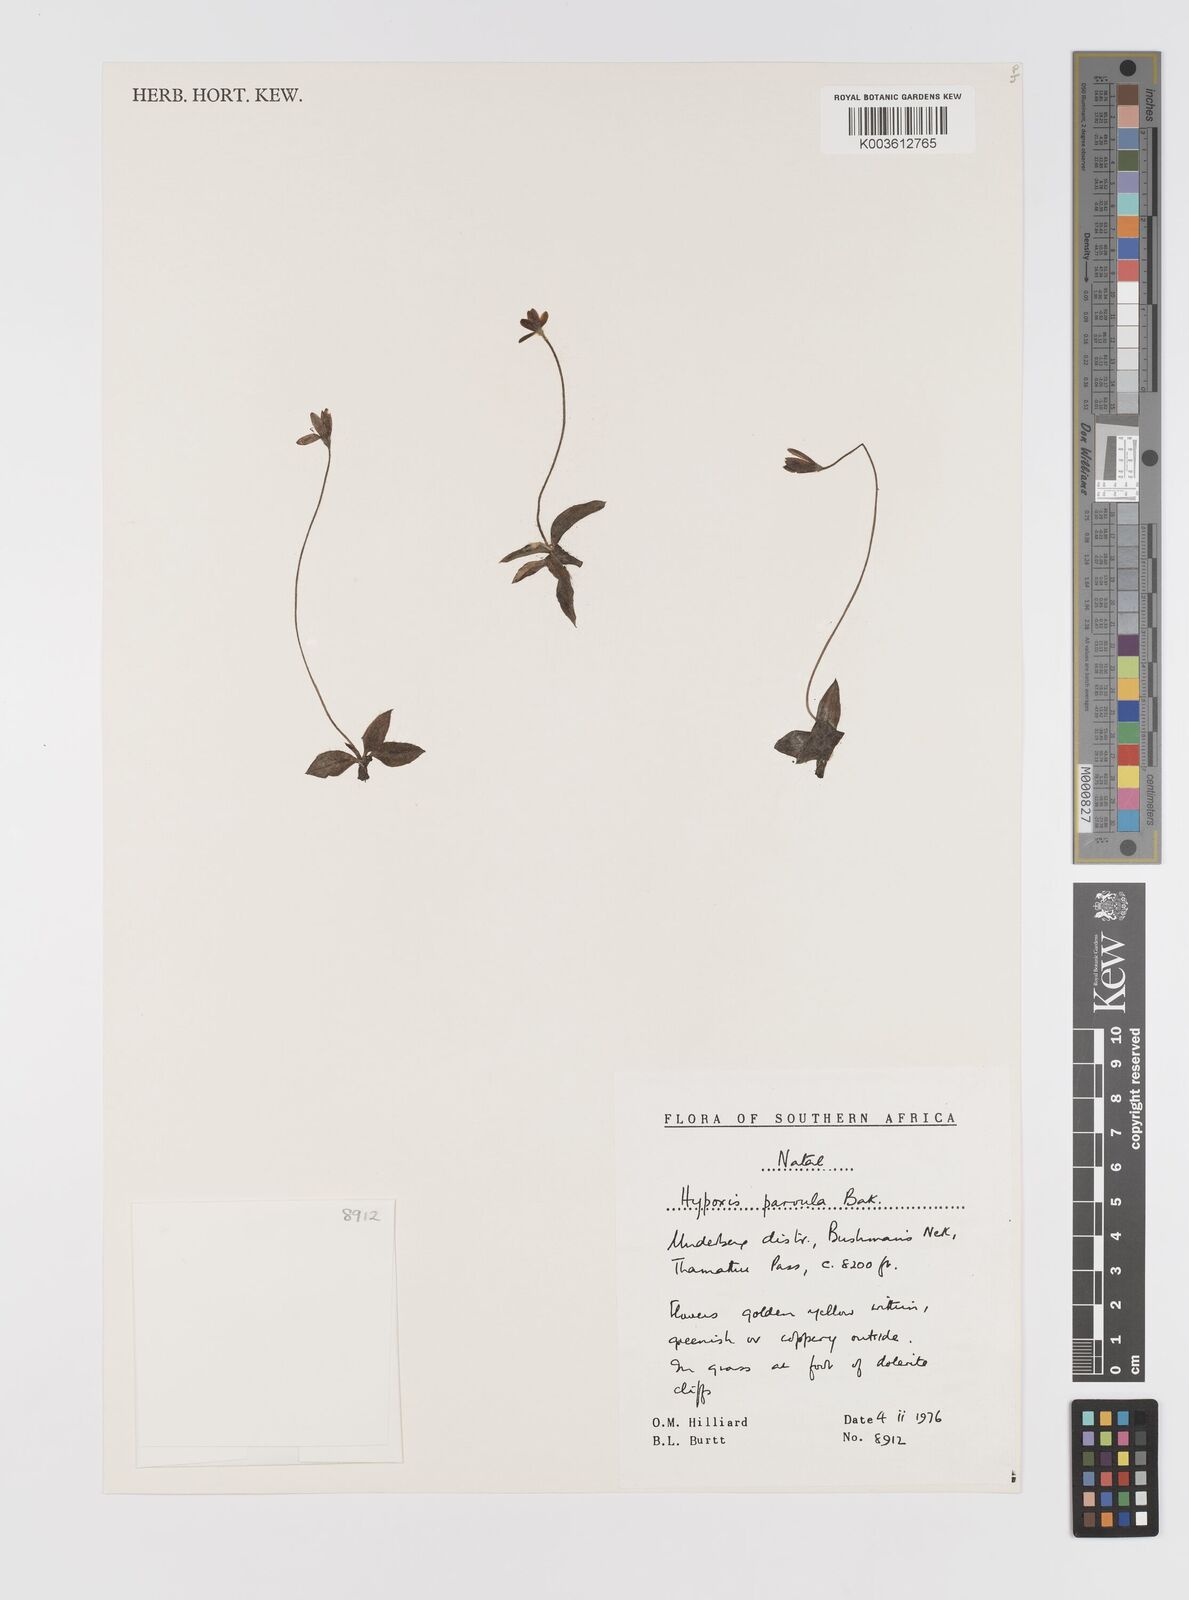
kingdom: Plantae
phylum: Tracheophyta
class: Liliopsida
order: Asparagales
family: Hypoxidaceae
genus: Hypoxis
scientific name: Hypoxis parvula
